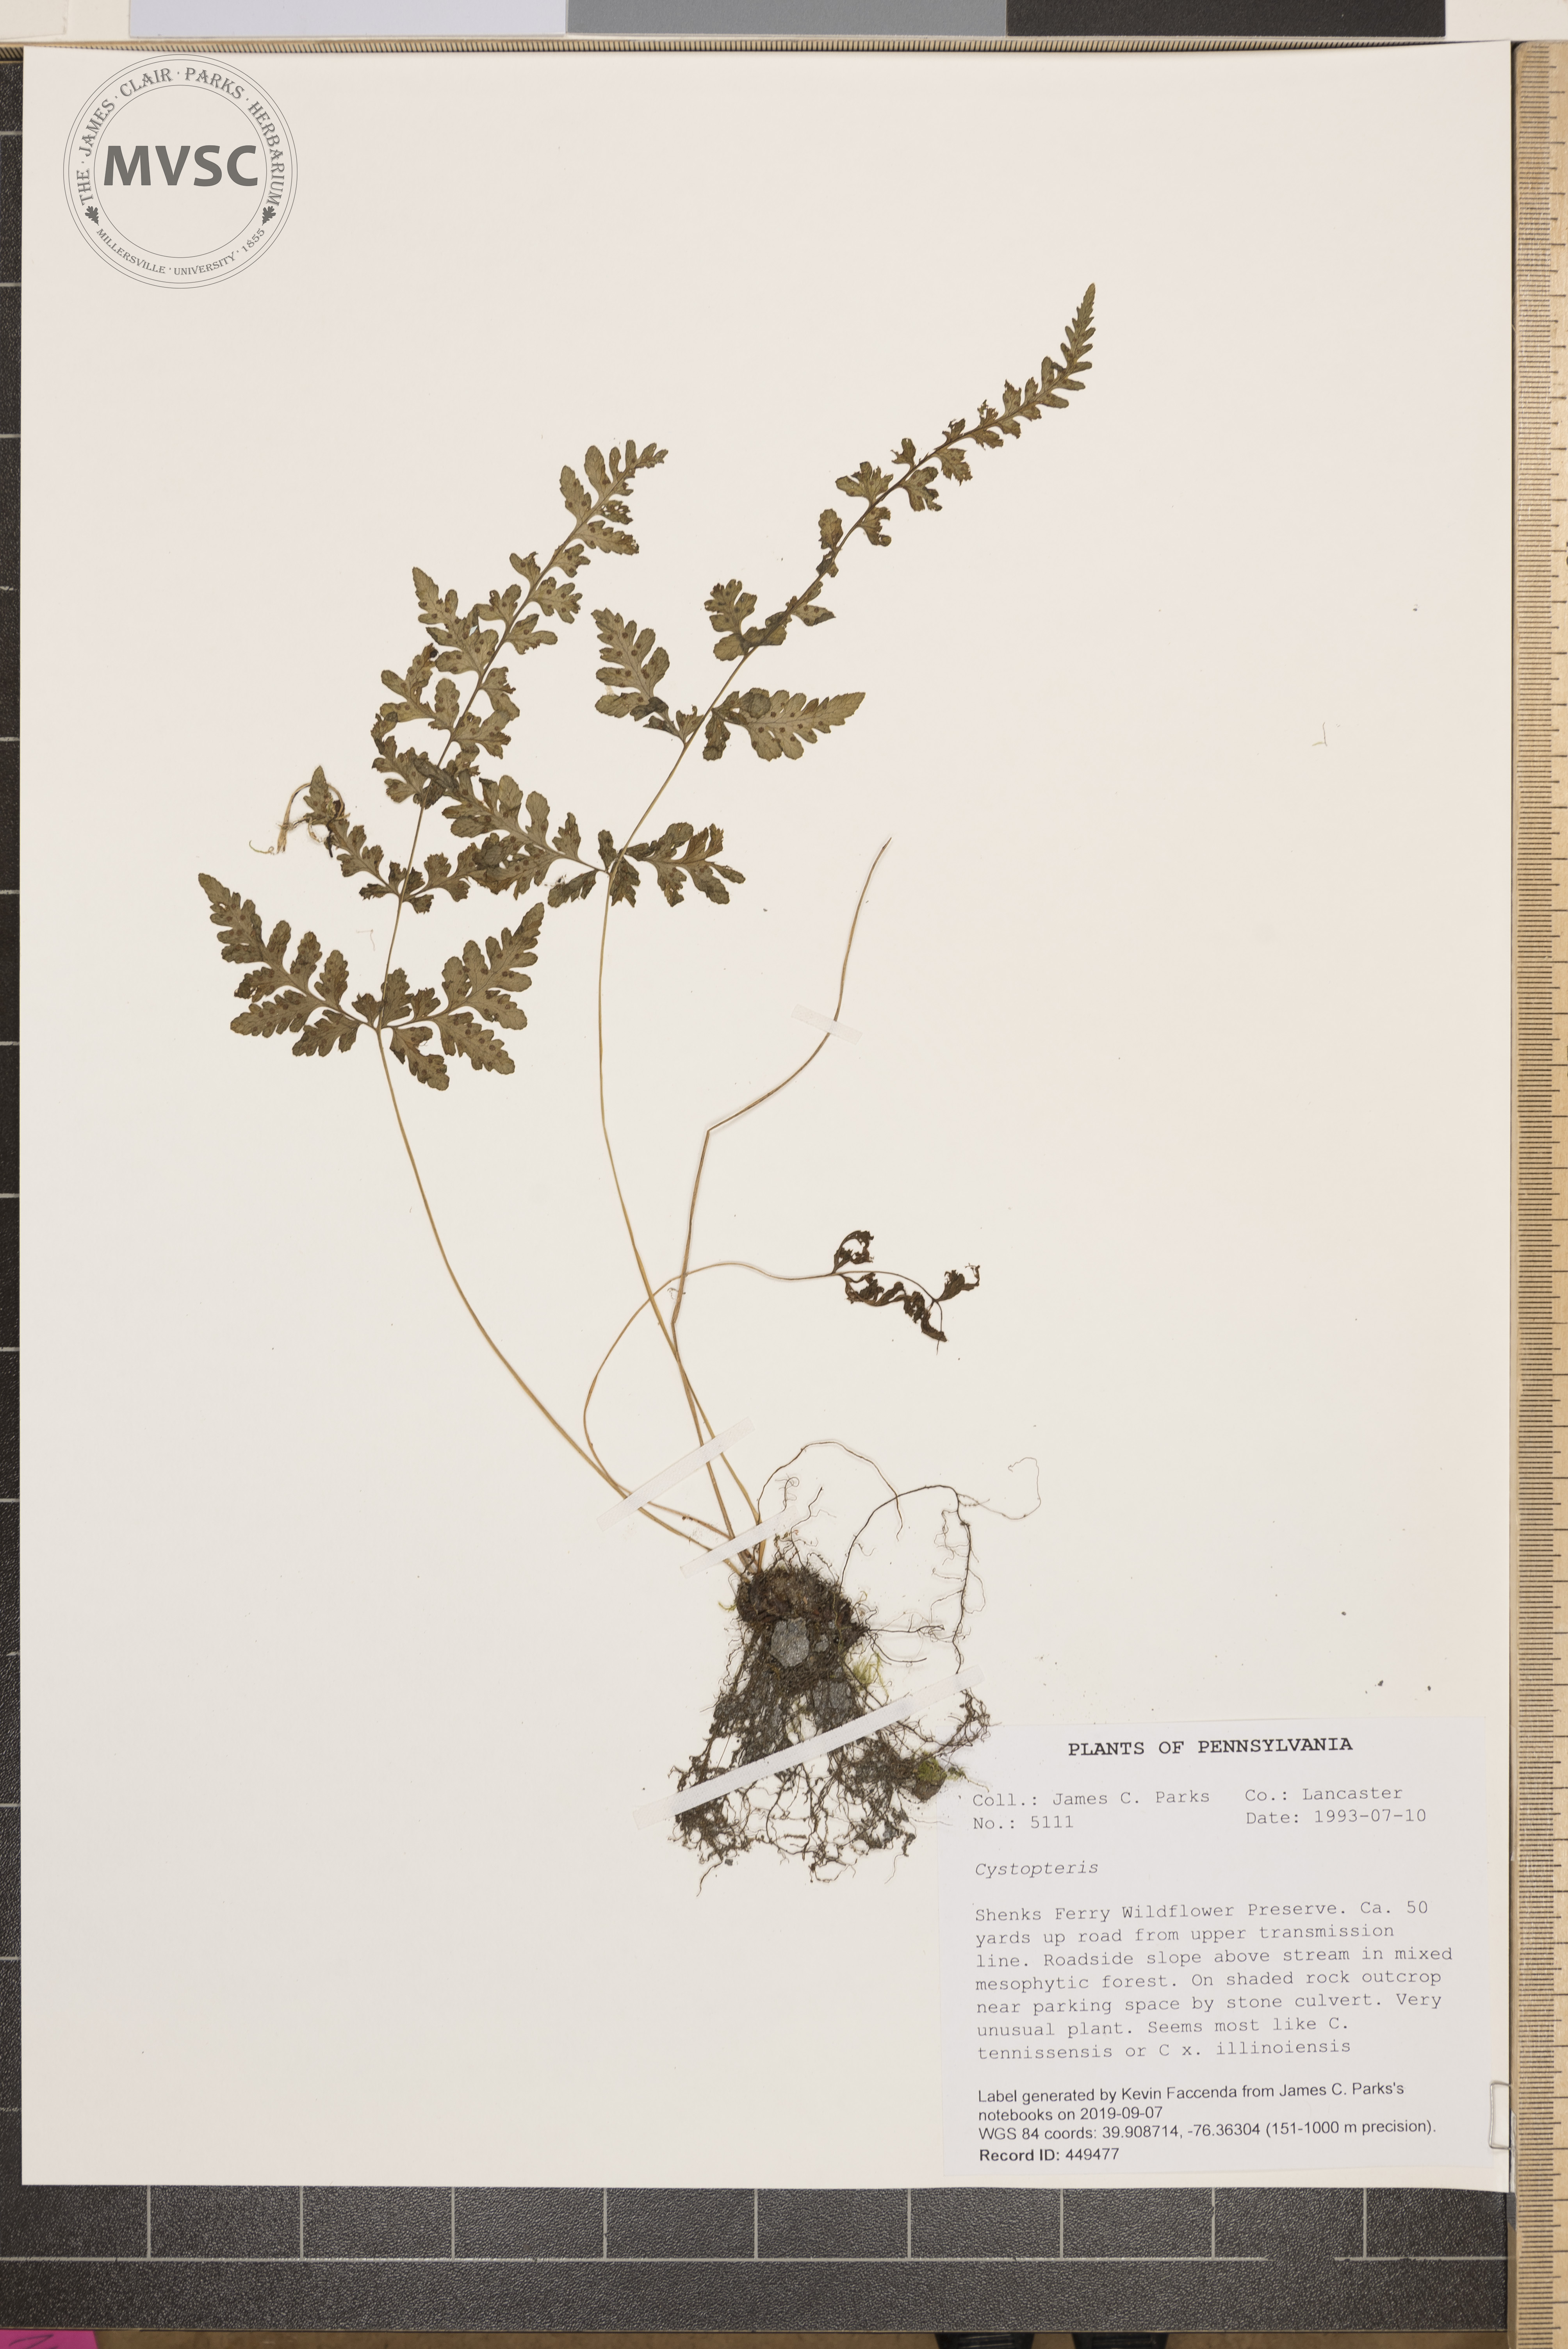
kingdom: Plantae
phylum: Tracheophyta
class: Polypodiopsida
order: Polypodiales
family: Cystopteridaceae
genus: Cystopteris
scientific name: Cystopteris
